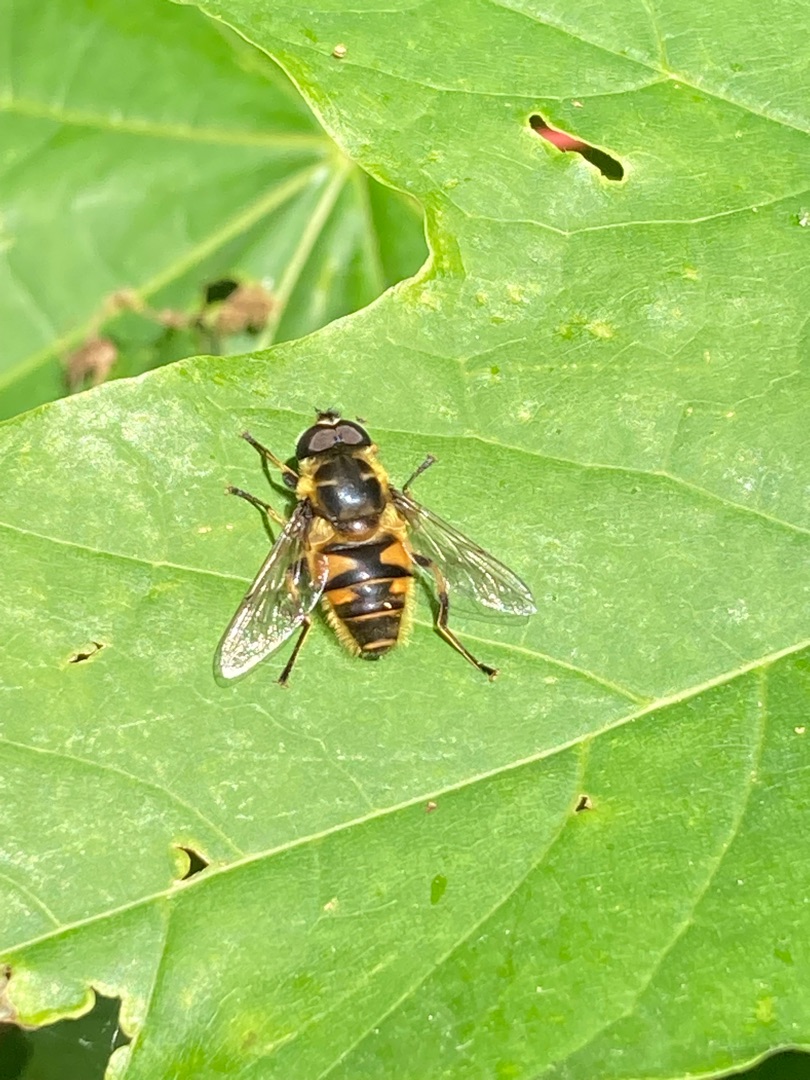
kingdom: Animalia
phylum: Arthropoda
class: Insecta
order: Diptera
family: Syrphidae
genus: Myathropa
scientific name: Myathropa florea
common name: Dødningehoved-svirreflue
